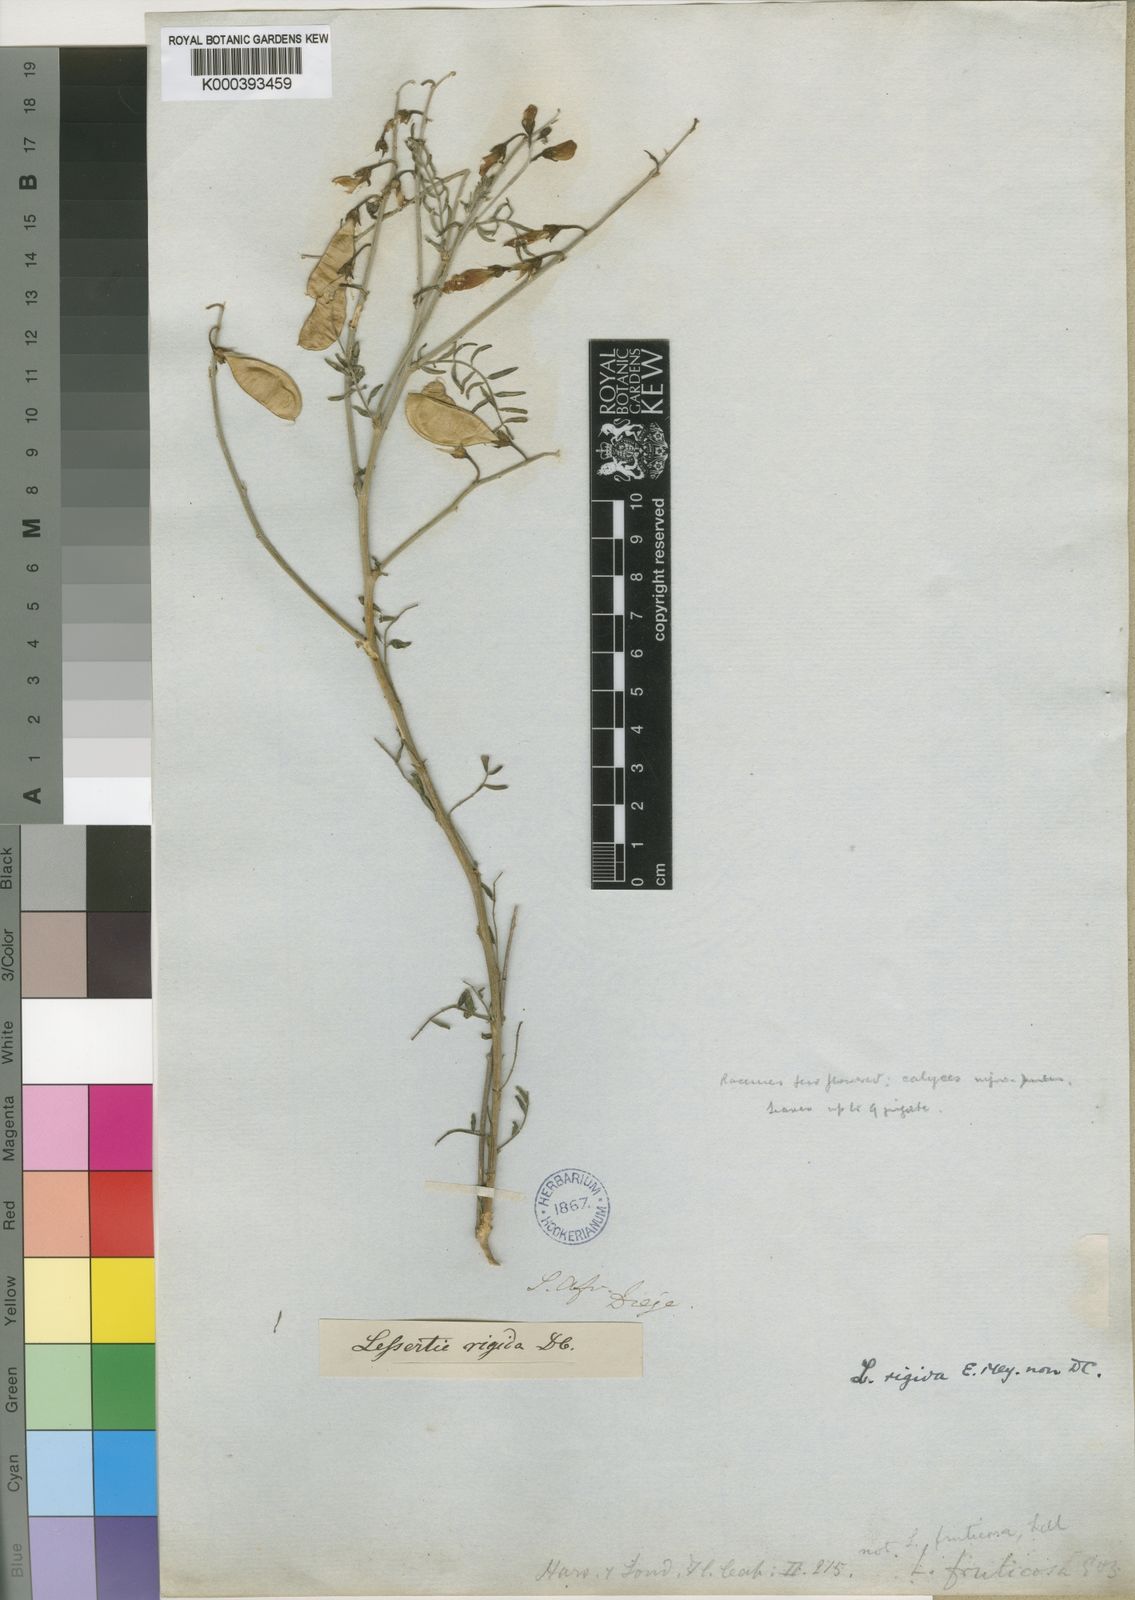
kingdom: Plantae
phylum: Tracheophyta
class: Magnoliopsida
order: Fabales
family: Fabaceae
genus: Lessertia
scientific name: Lessertia
